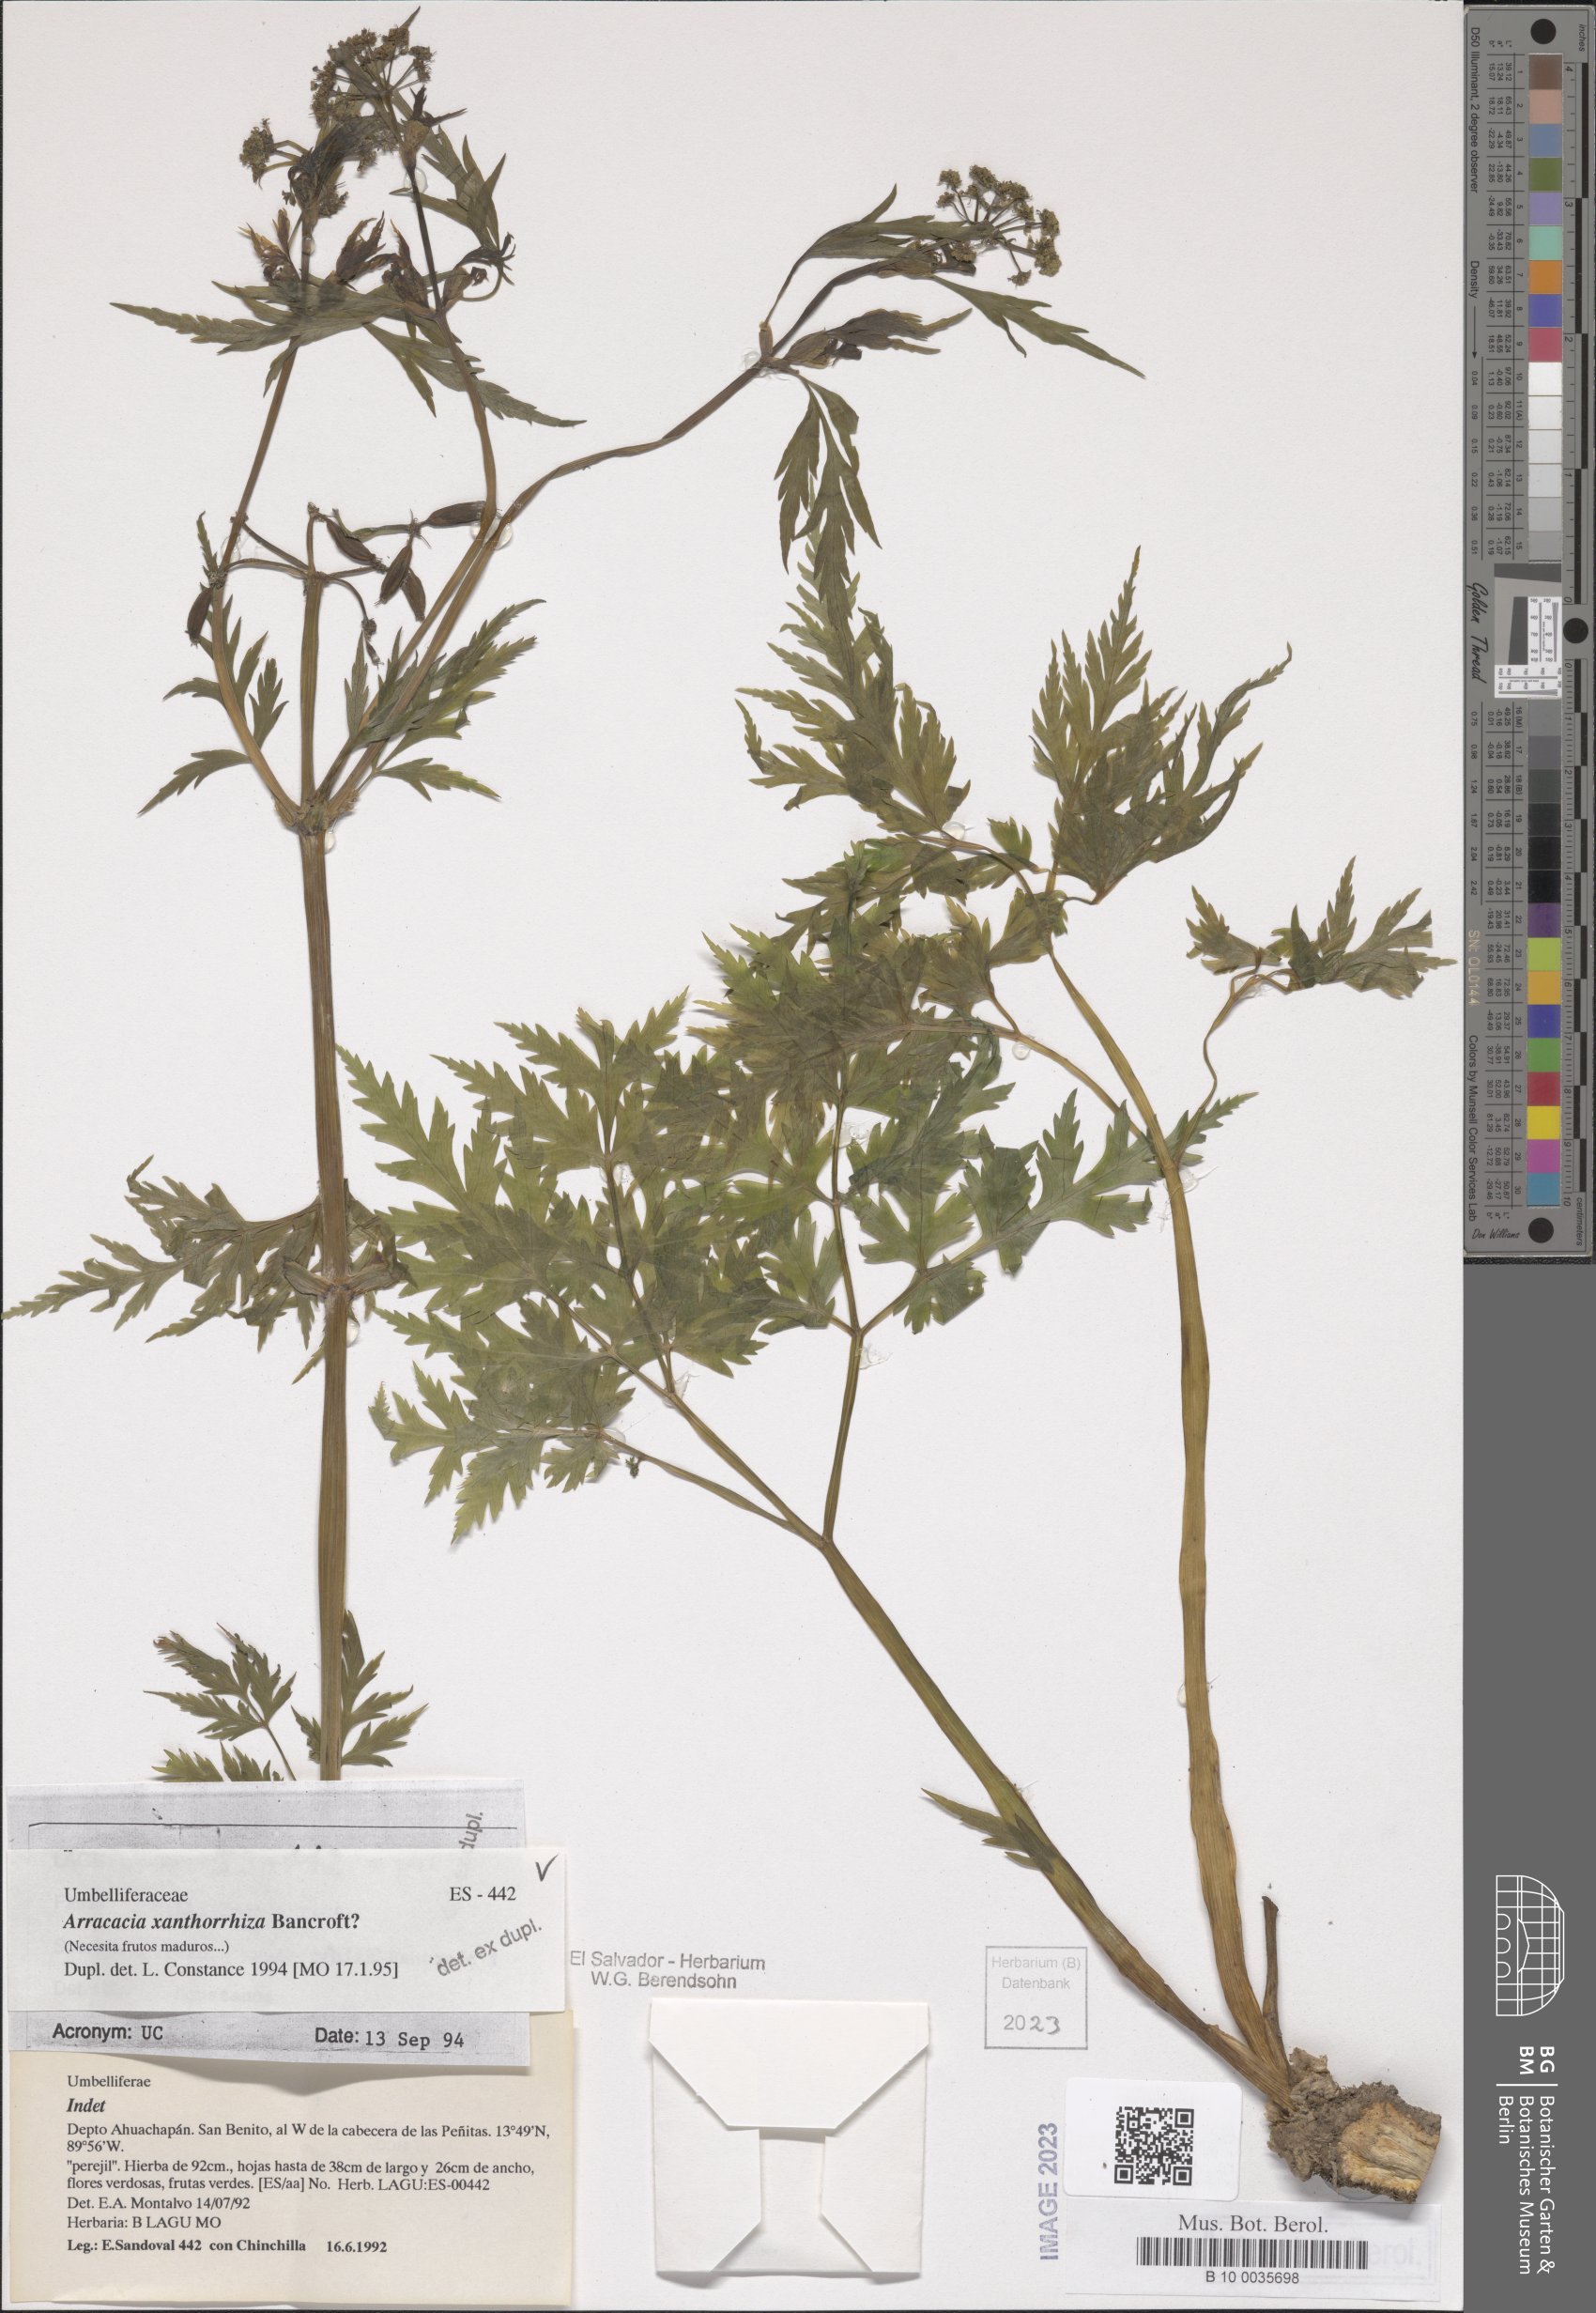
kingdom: Plantae
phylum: Tracheophyta
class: Magnoliopsida
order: Apiales
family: Apiaceae
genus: Arracacia
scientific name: Arracacia xanthorrhiza
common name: Peruvian-carrot
